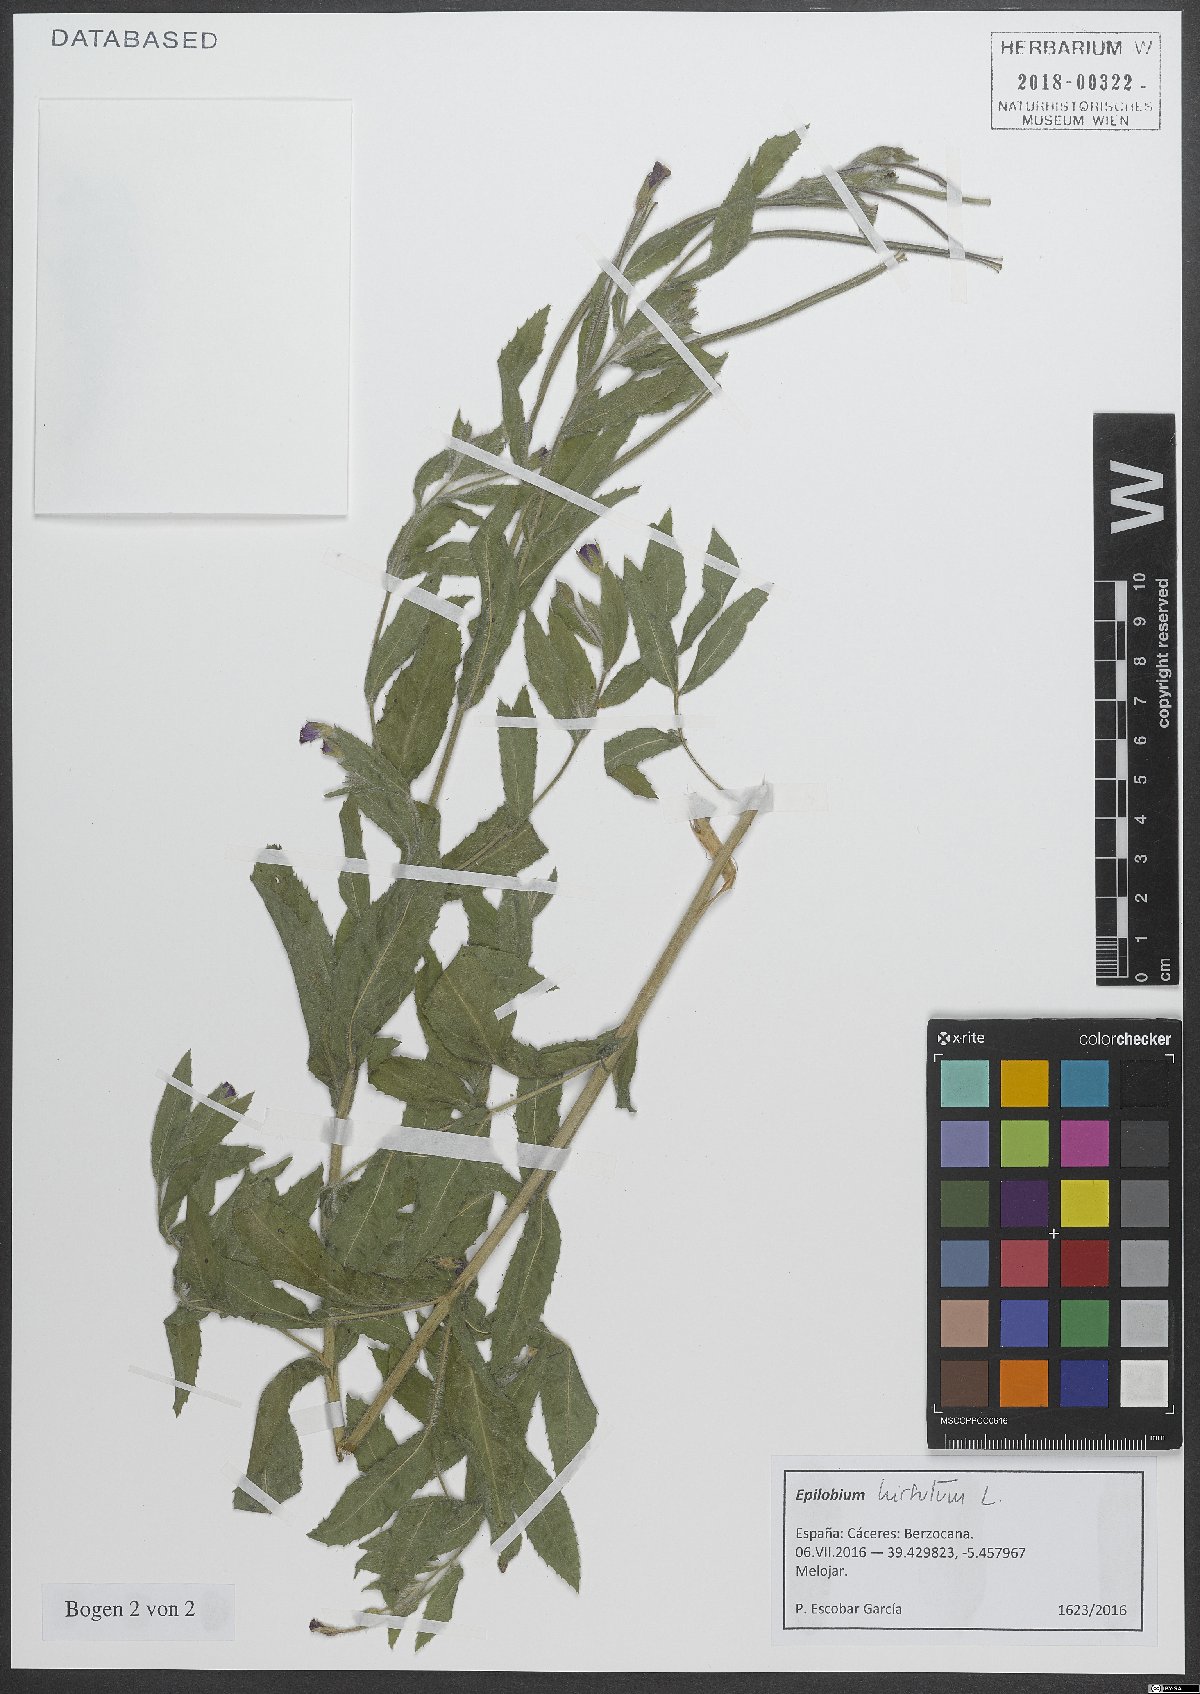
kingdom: Plantae
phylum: Tracheophyta
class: Magnoliopsida
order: Myrtales
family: Onagraceae
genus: Epilobium
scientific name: Epilobium hirsutum
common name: Great willowherb
